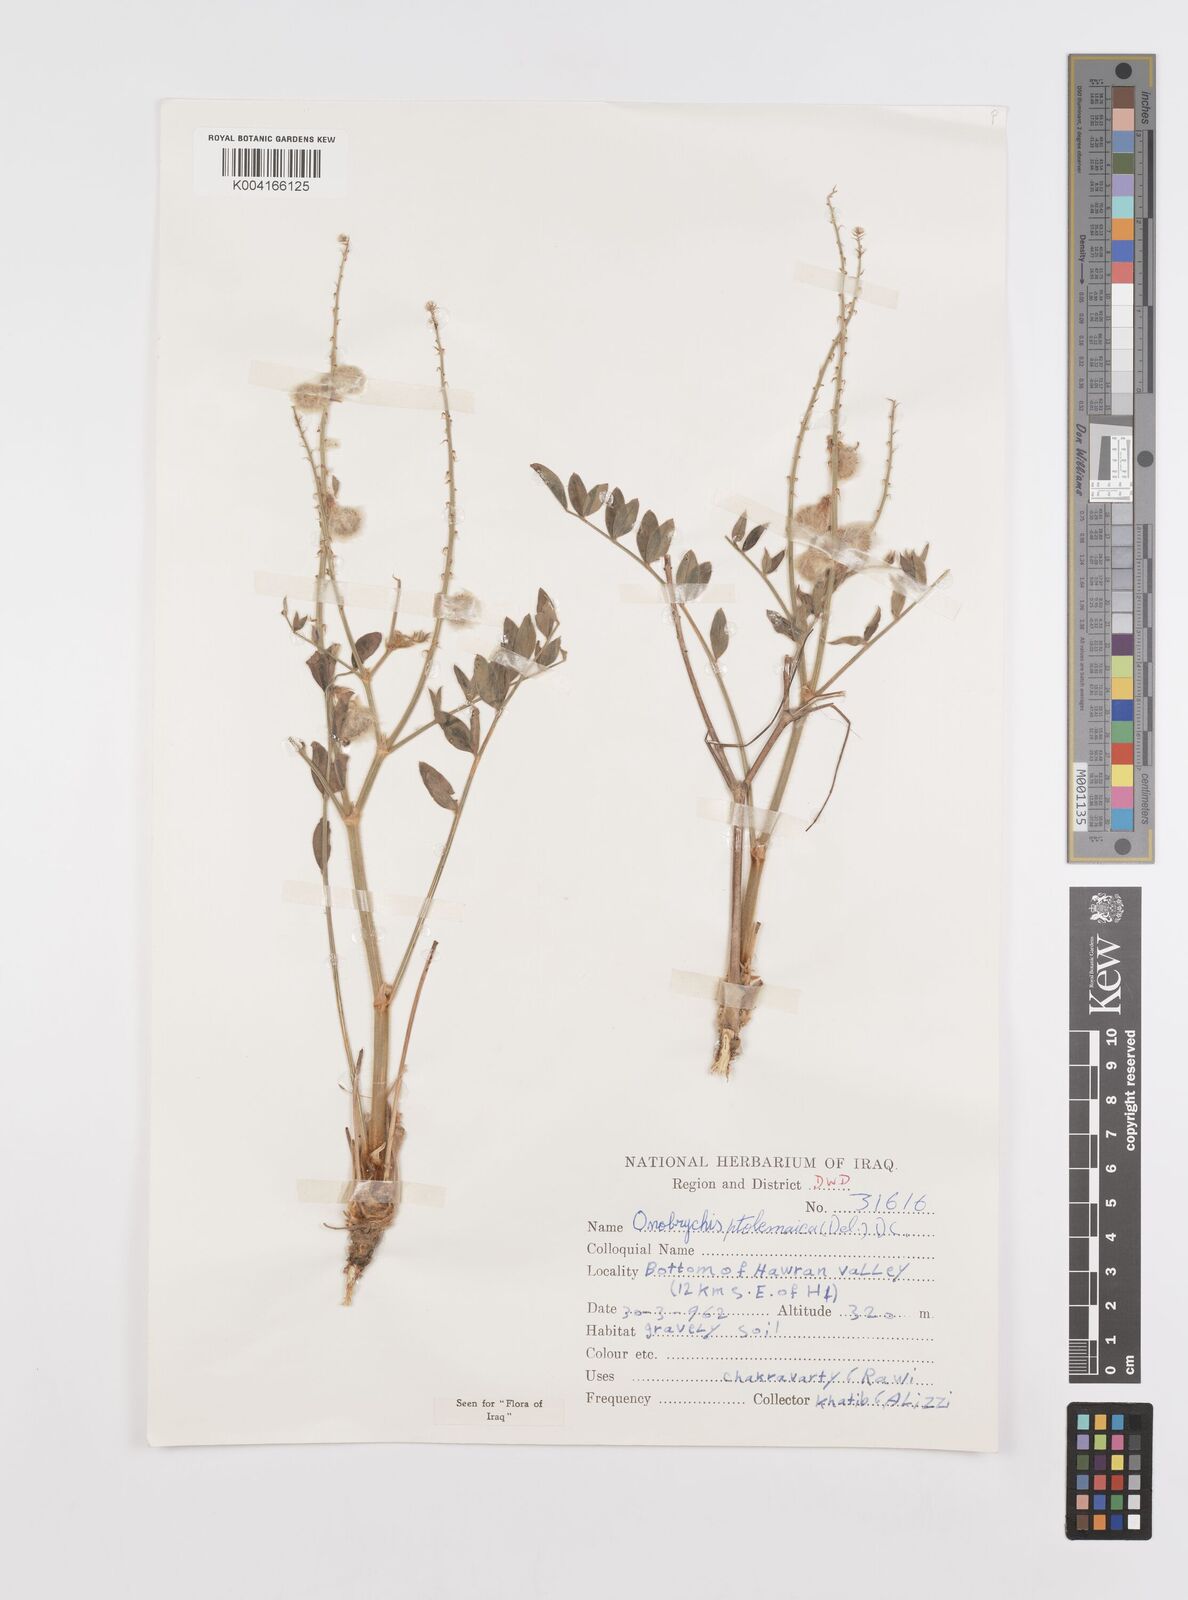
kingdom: Plantae
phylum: Tracheophyta
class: Magnoliopsida
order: Fabales
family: Fabaceae
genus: Onobrychis
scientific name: Onobrychis ptolemaica
